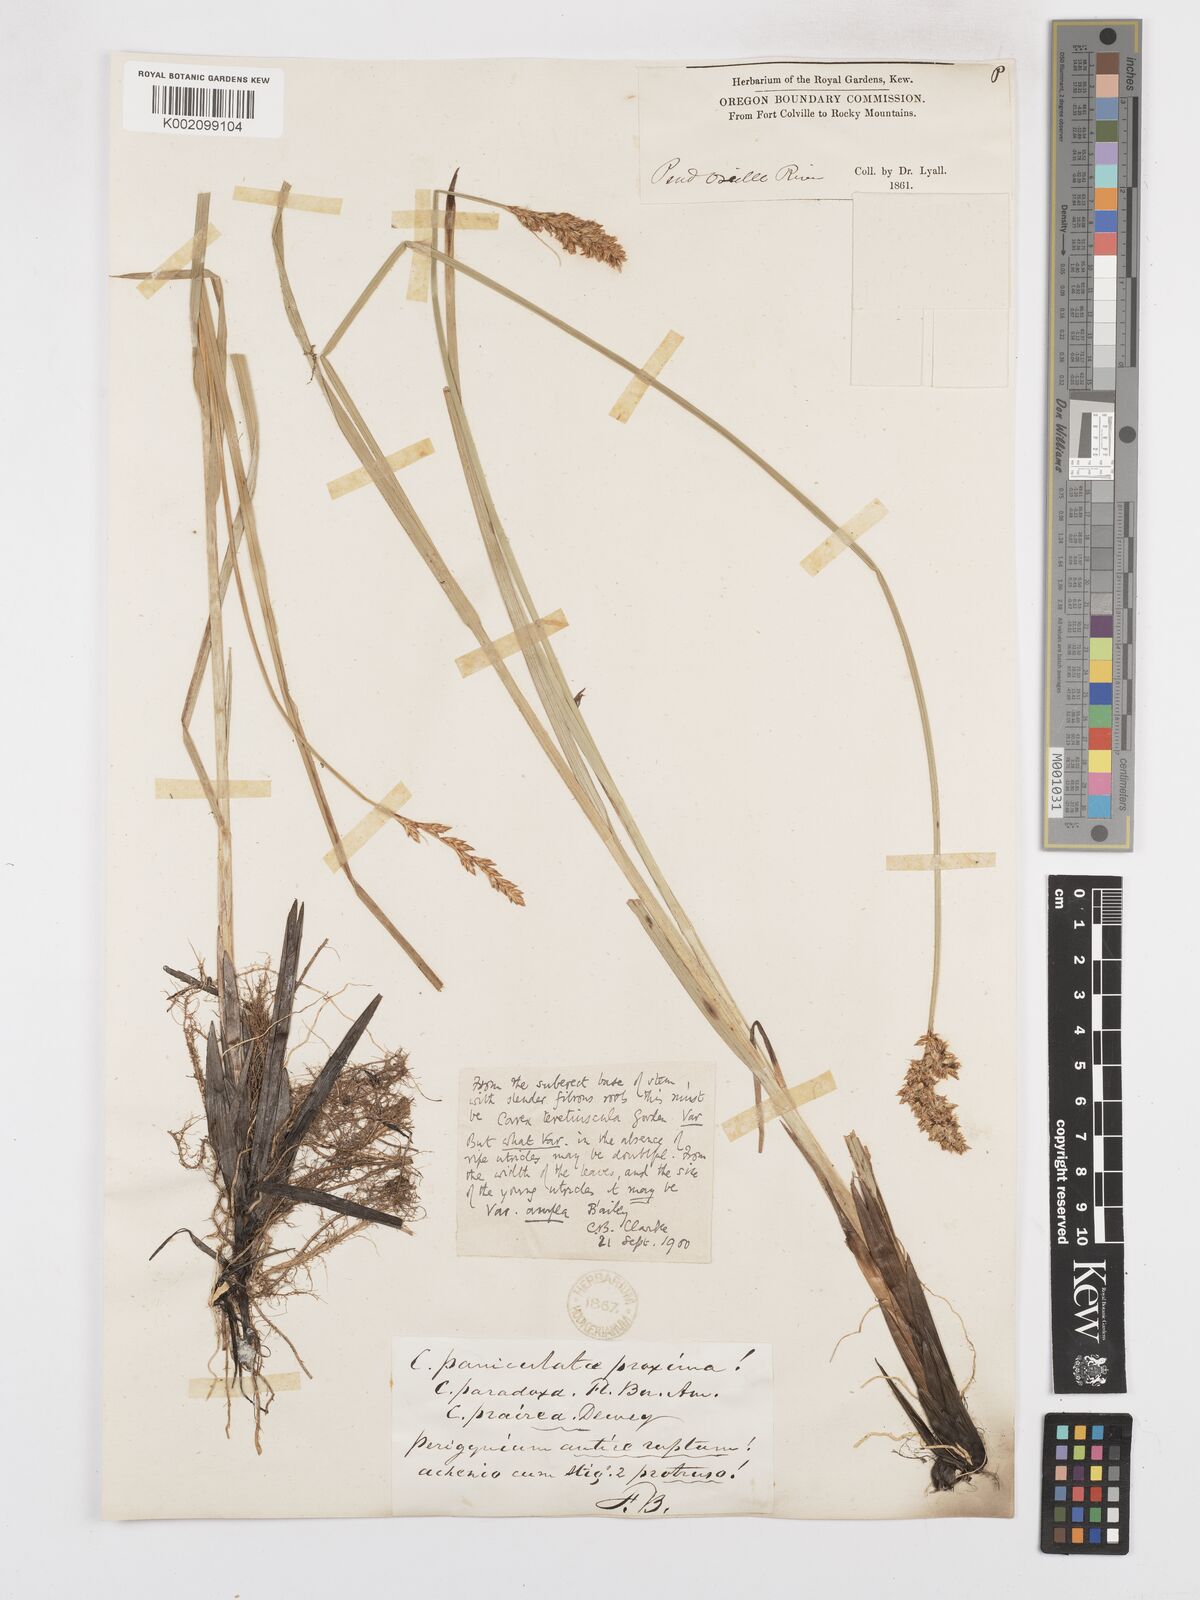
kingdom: Plantae
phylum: Tracheophyta
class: Liliopsida
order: Poales
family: Cyperaceae
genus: Carex
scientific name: Carex cusickii
